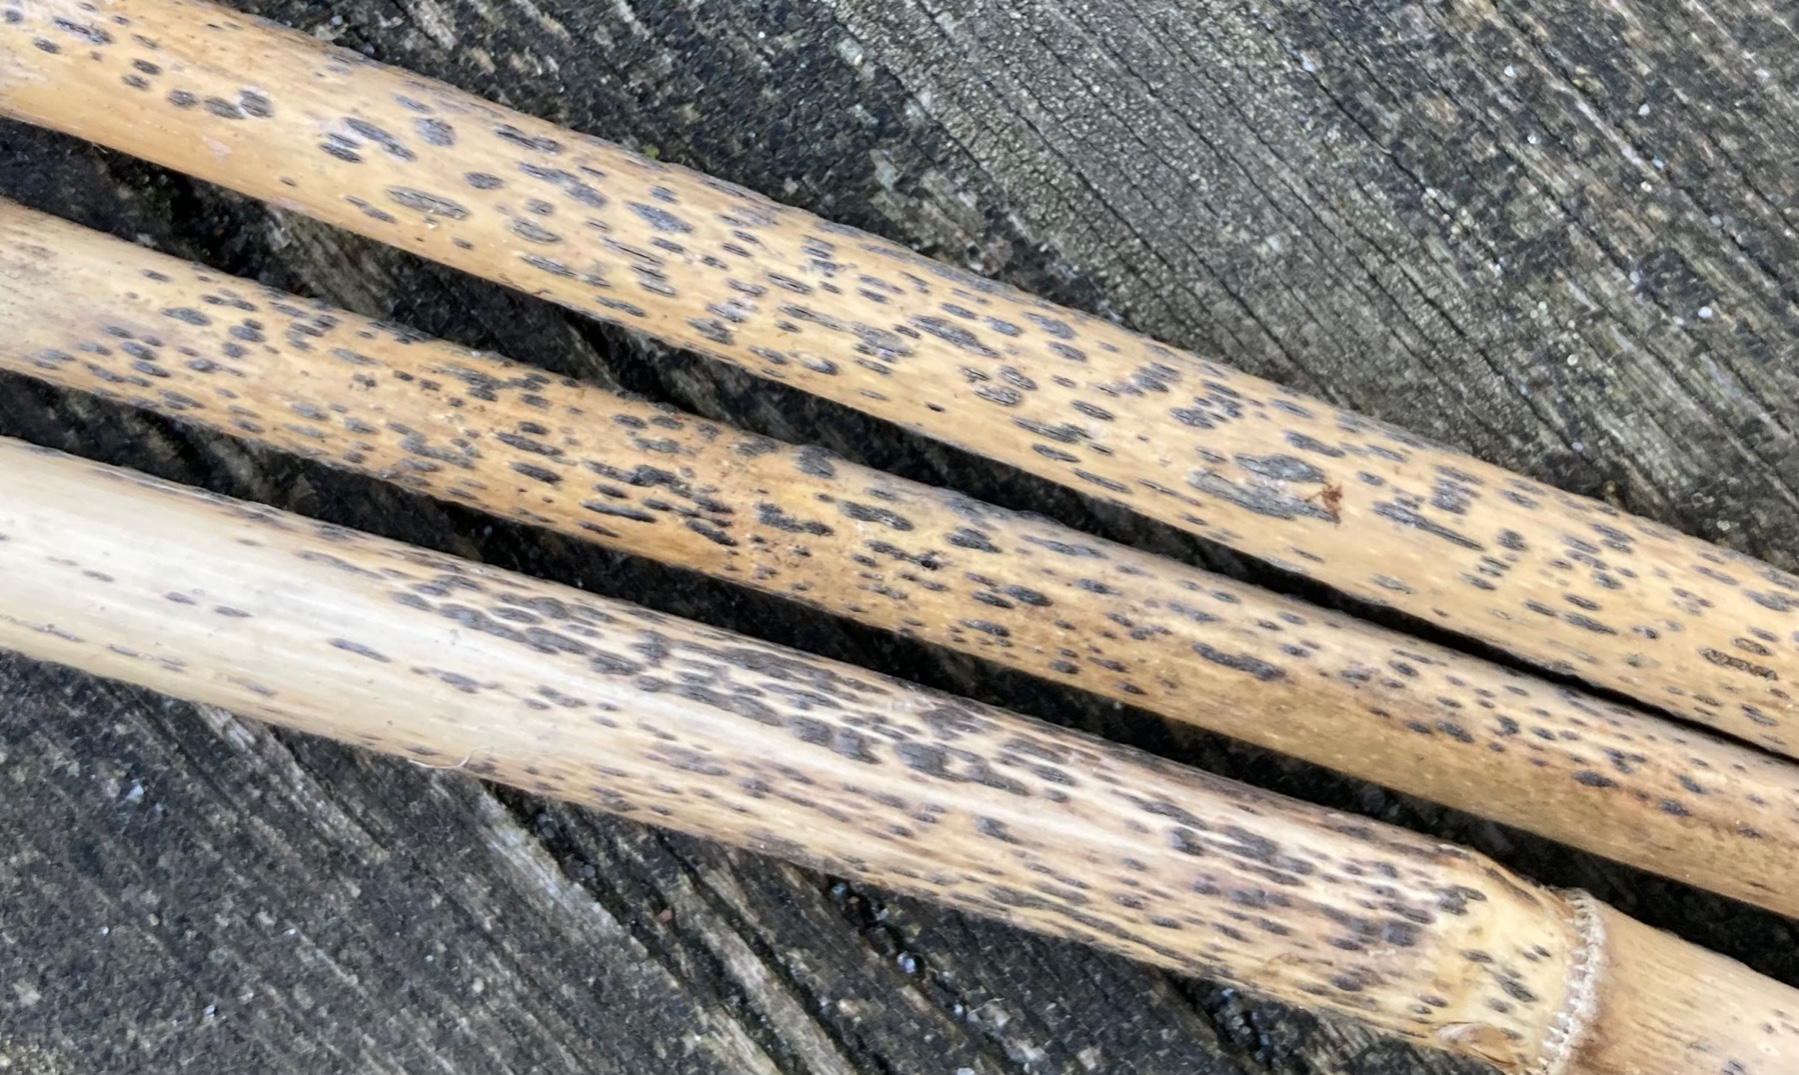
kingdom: Fungi
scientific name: Fungi
